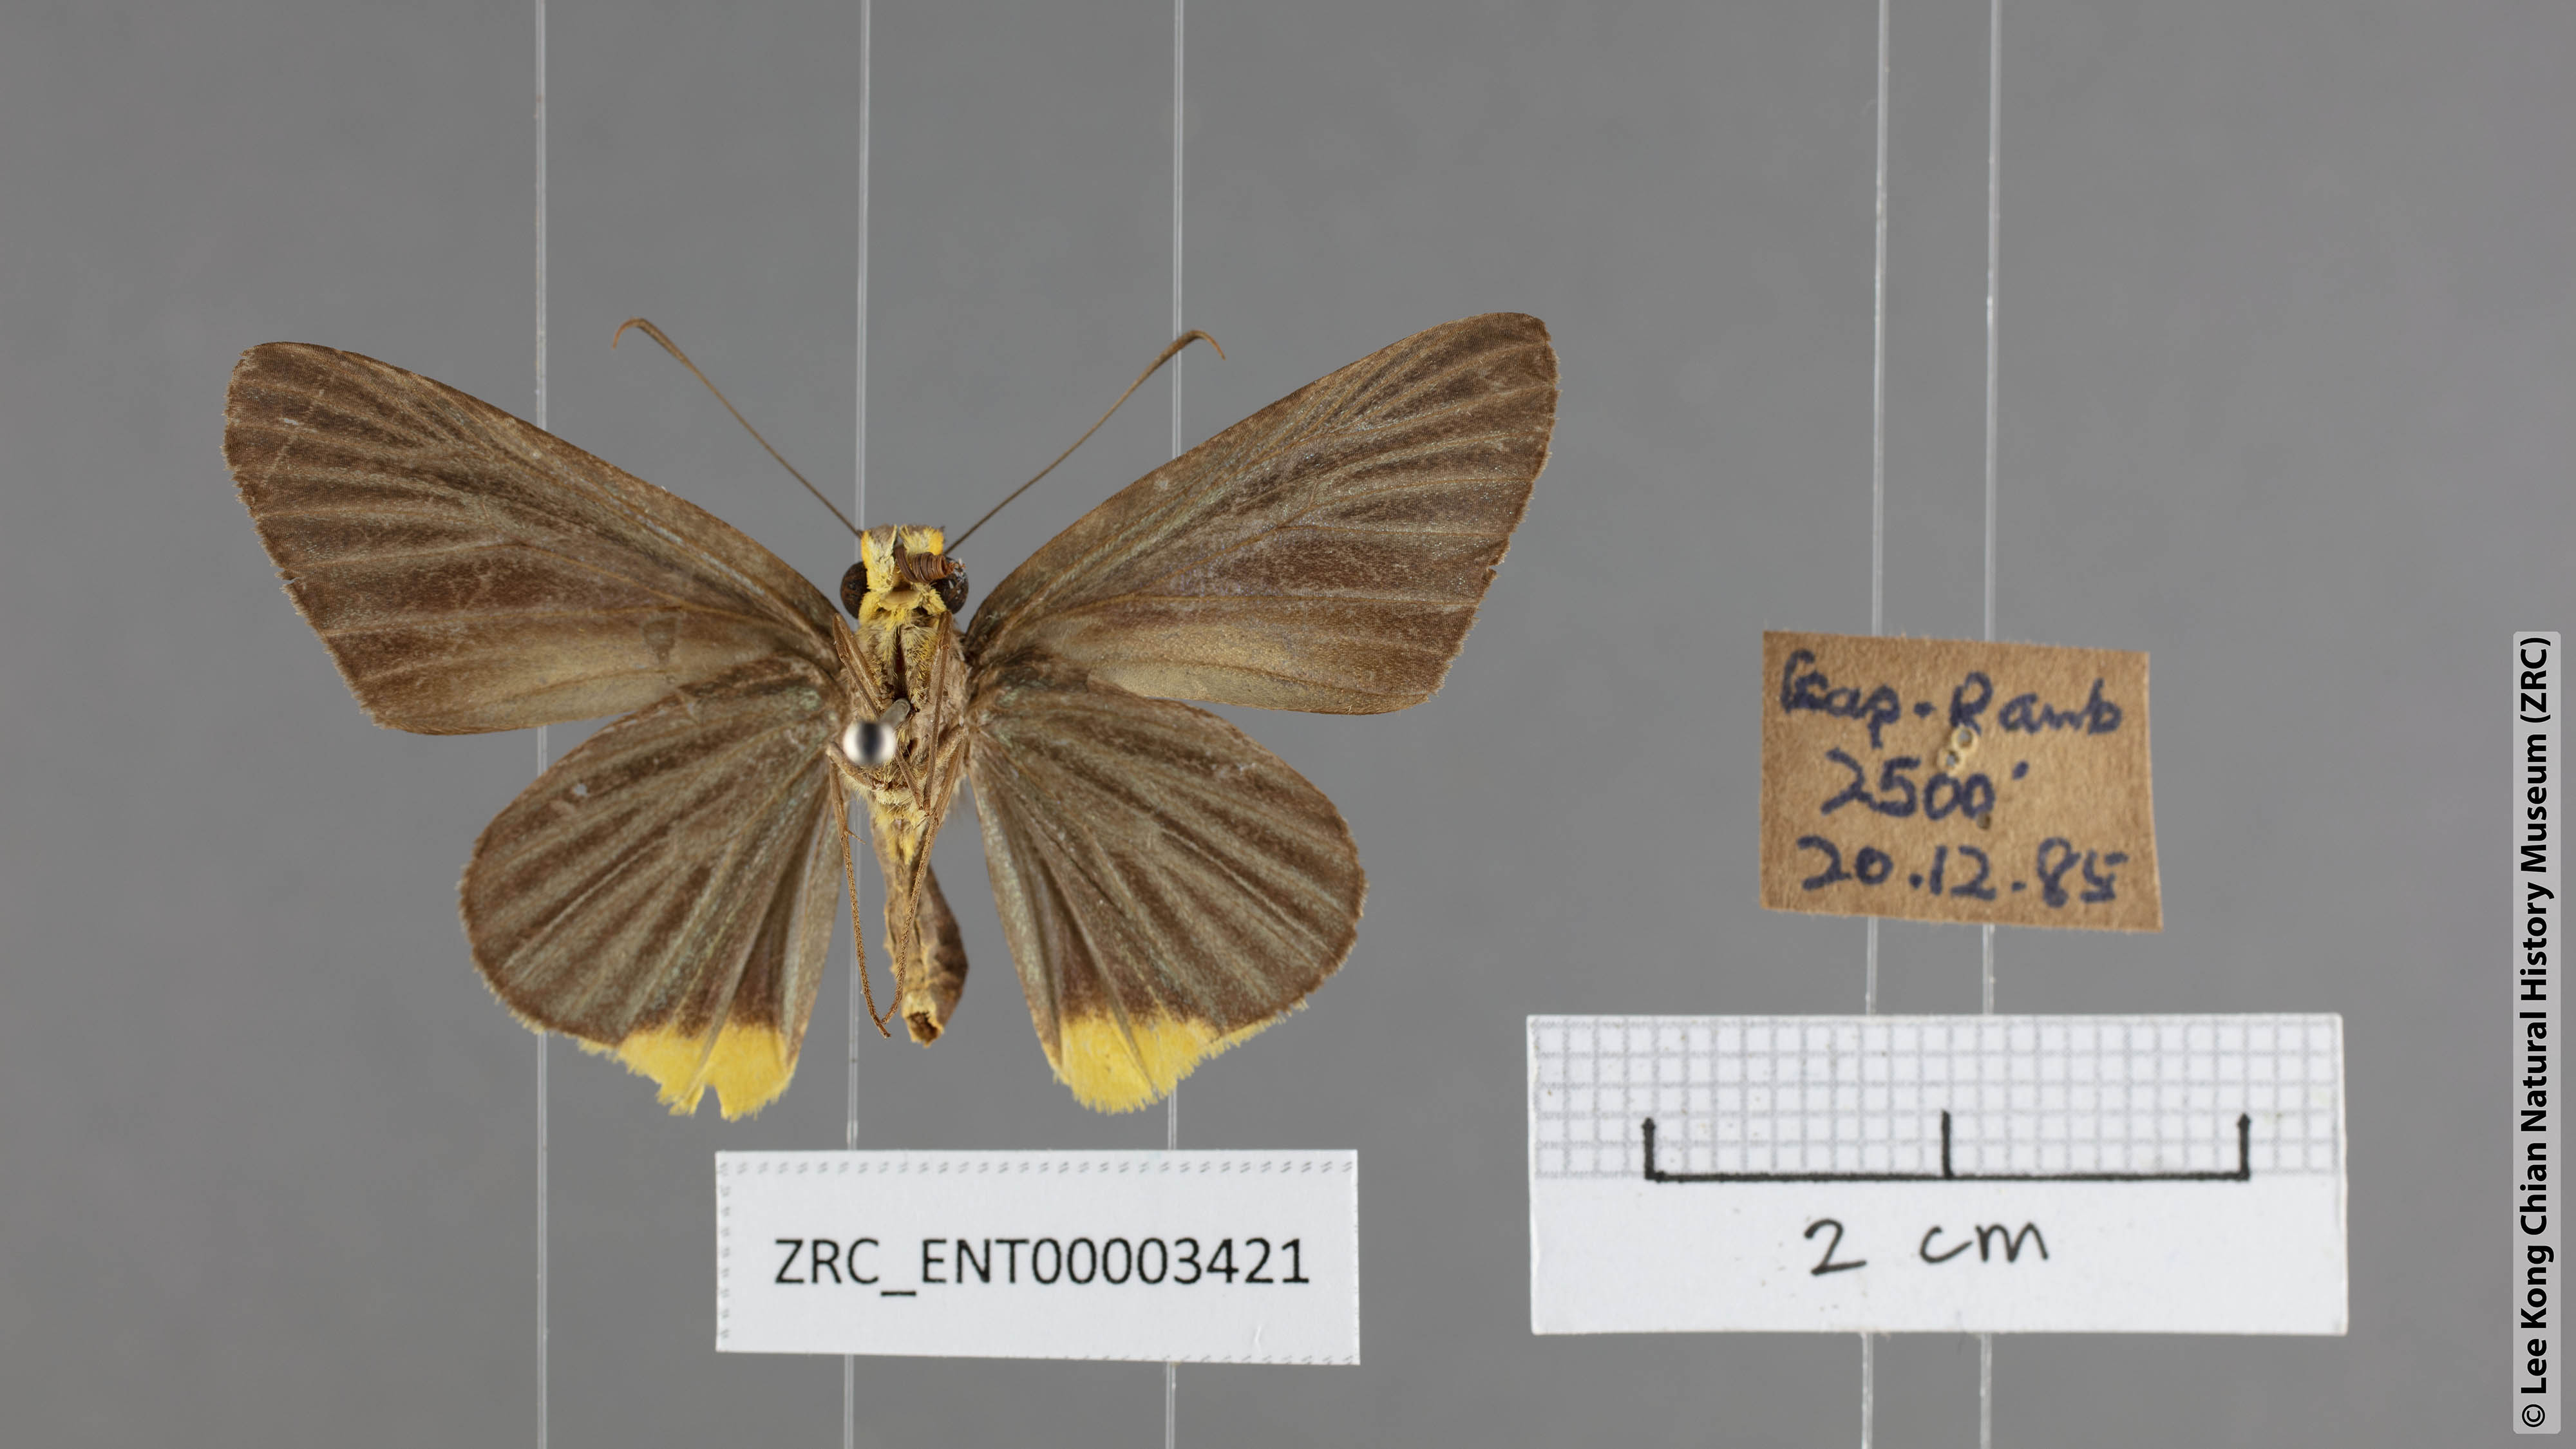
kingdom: Animalia
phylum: Arthropoda
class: Insecta
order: Lepidoptera
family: Hesperiidae
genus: Pirdana
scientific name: Pirdana hyela
